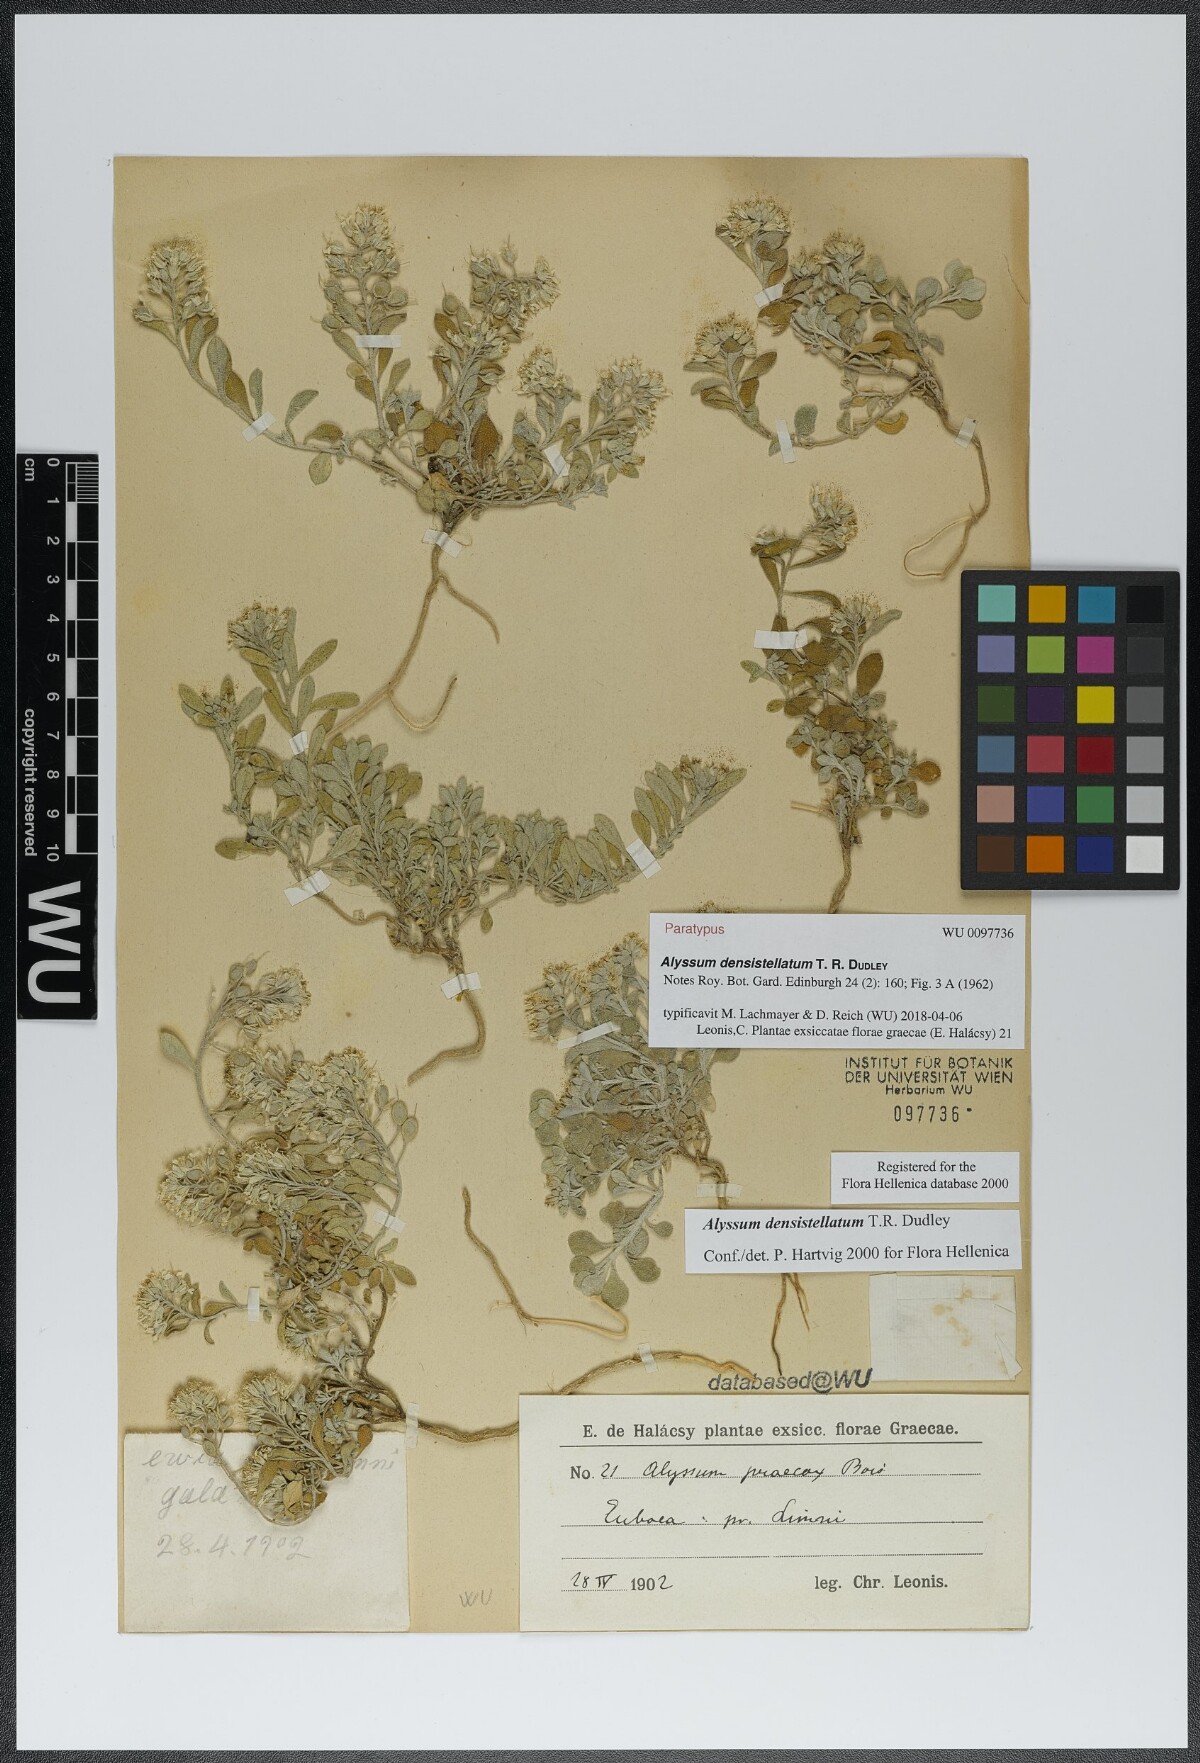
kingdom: Plantae
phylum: Tracheophyta
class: Magnoliopsida
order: Brassicales
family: Brassicaceae
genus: Alyssum
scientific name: Alyssum densistellatum
